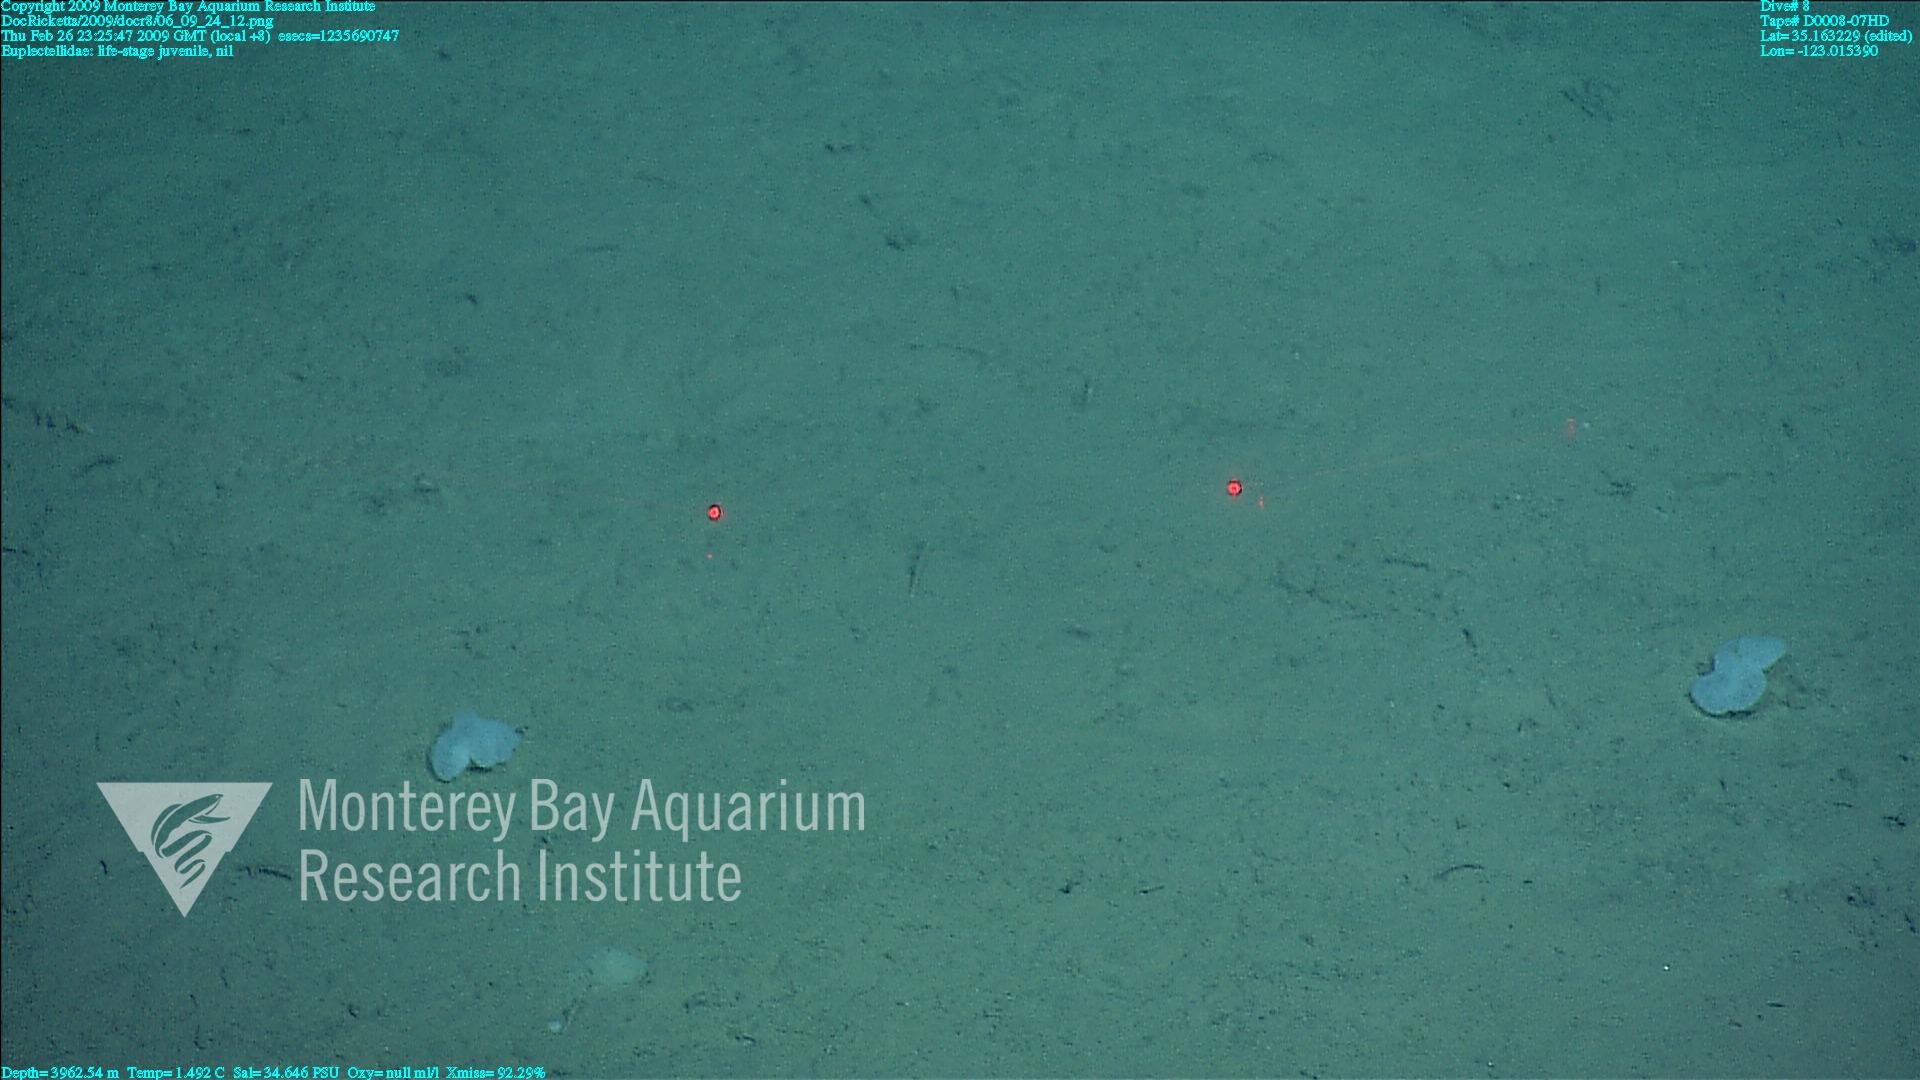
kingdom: Animalia
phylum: Porifera
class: Hexactinellida
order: Lyssacinosida
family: Euplectellidae
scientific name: Euplectellidae
